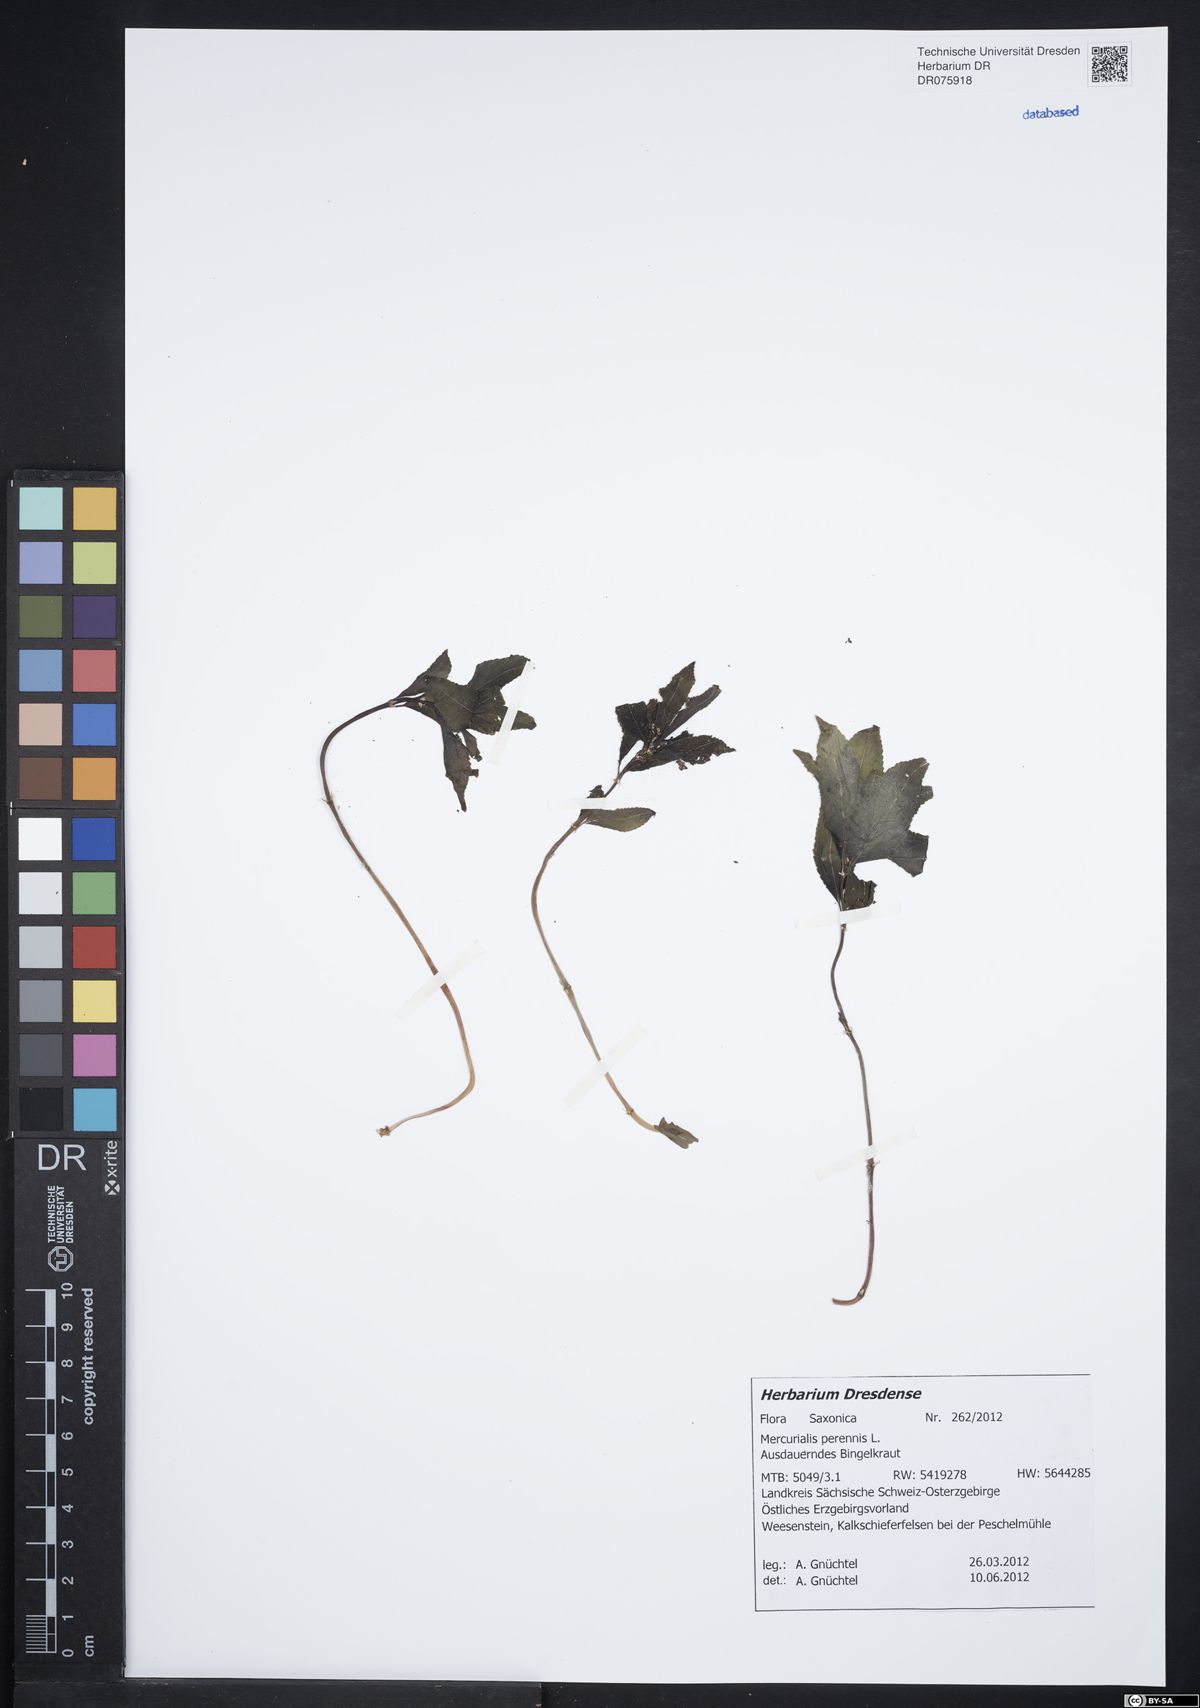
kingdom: Plantae
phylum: Tracheophyta
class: Magnoliopsida
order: Malpighiales
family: Euphorbiaceae
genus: Mercurialis
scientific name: Mercurialis perennis
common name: Dog mercury
